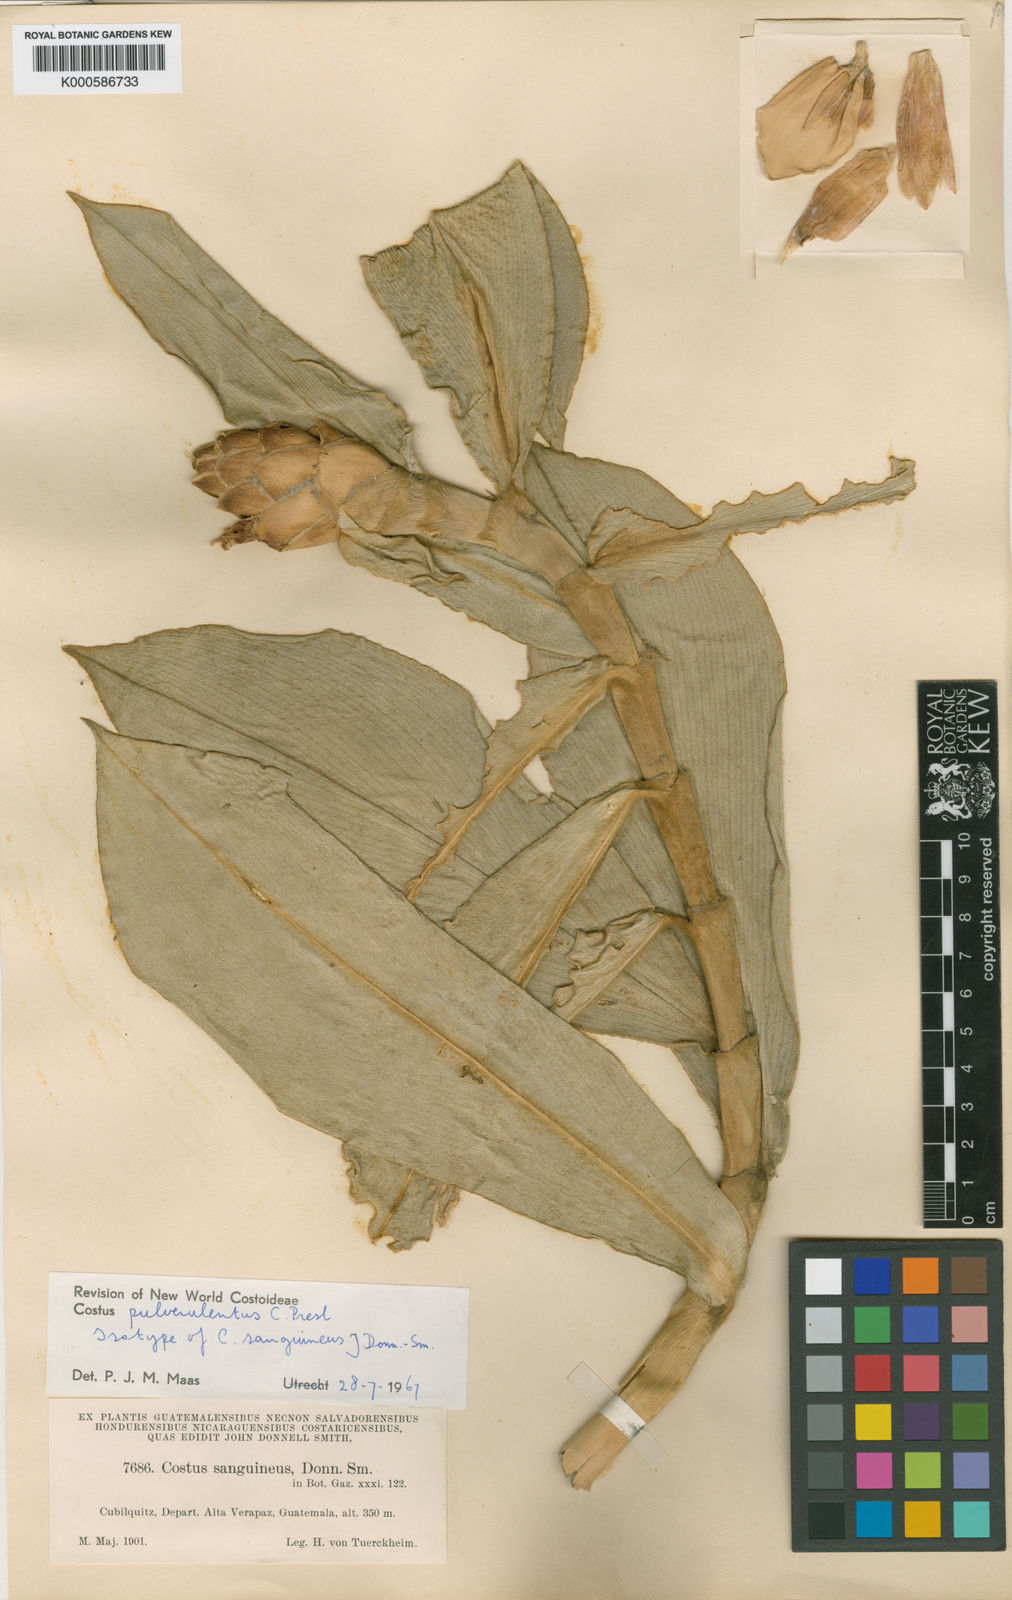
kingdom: Plantae
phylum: Tracheophyta
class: Liliopsida
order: Zingiberales
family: Costaceae
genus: Costus
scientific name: Costus pulverulentus
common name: Spiral ginger
